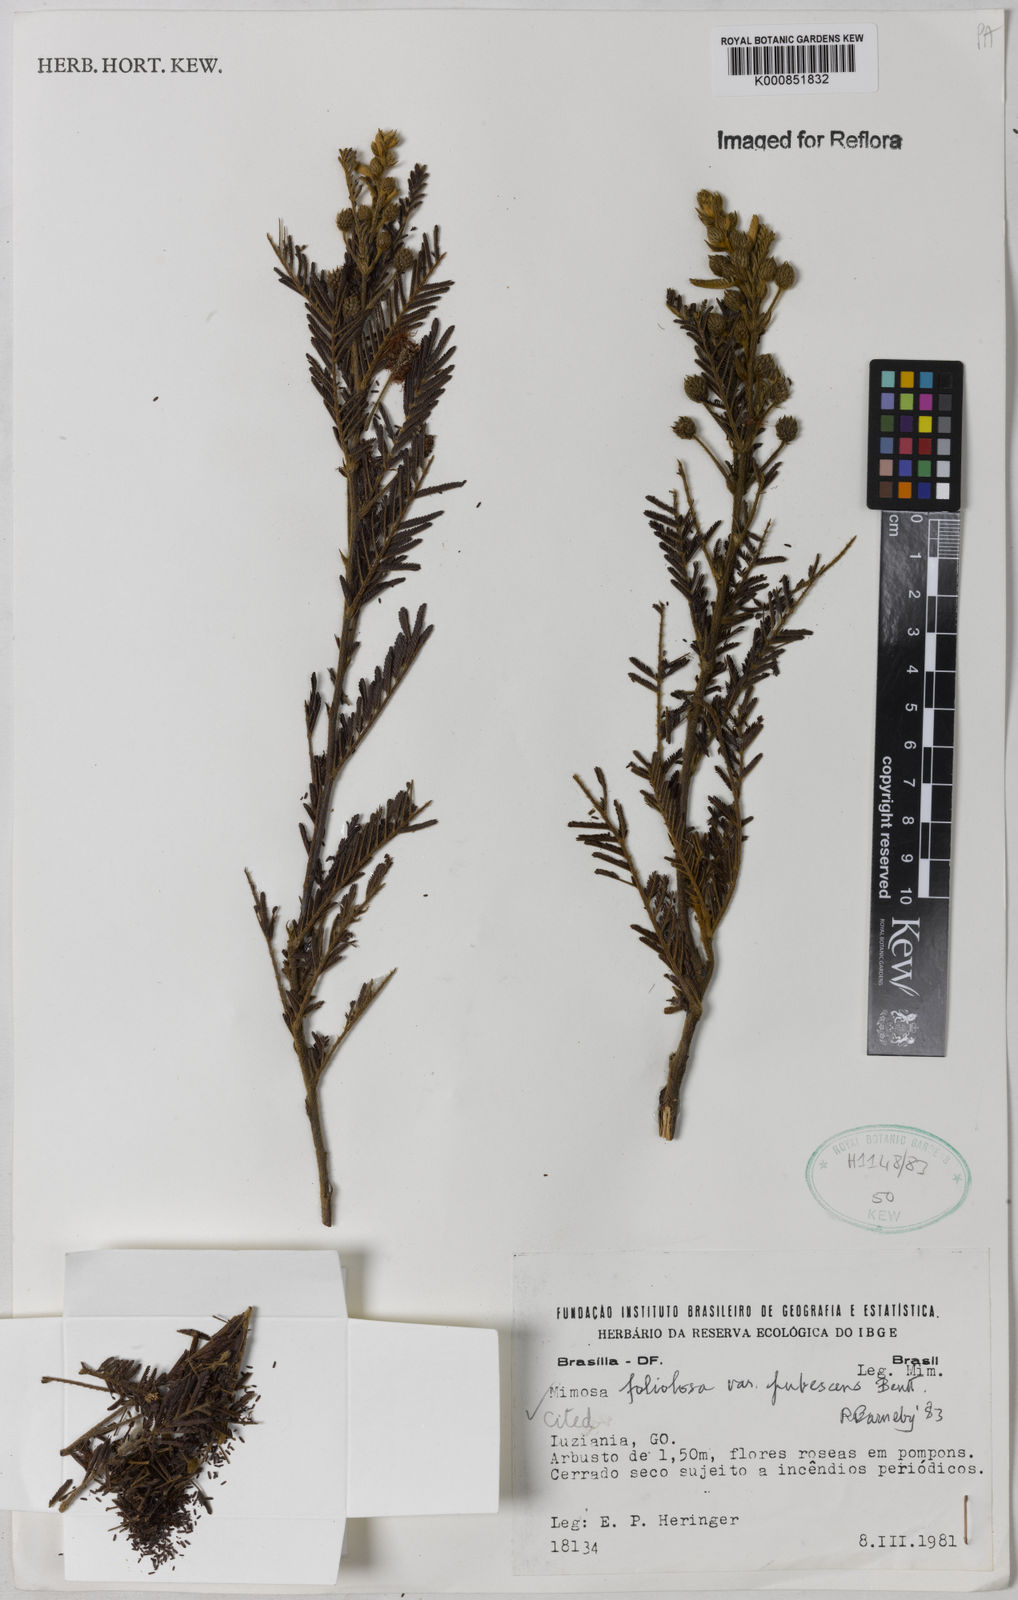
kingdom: Plantae
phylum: Tracheophyta
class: Magnoliopsida
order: Fabales
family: Fabaceae
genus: Mimosa
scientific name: Mimosa foliolosa
